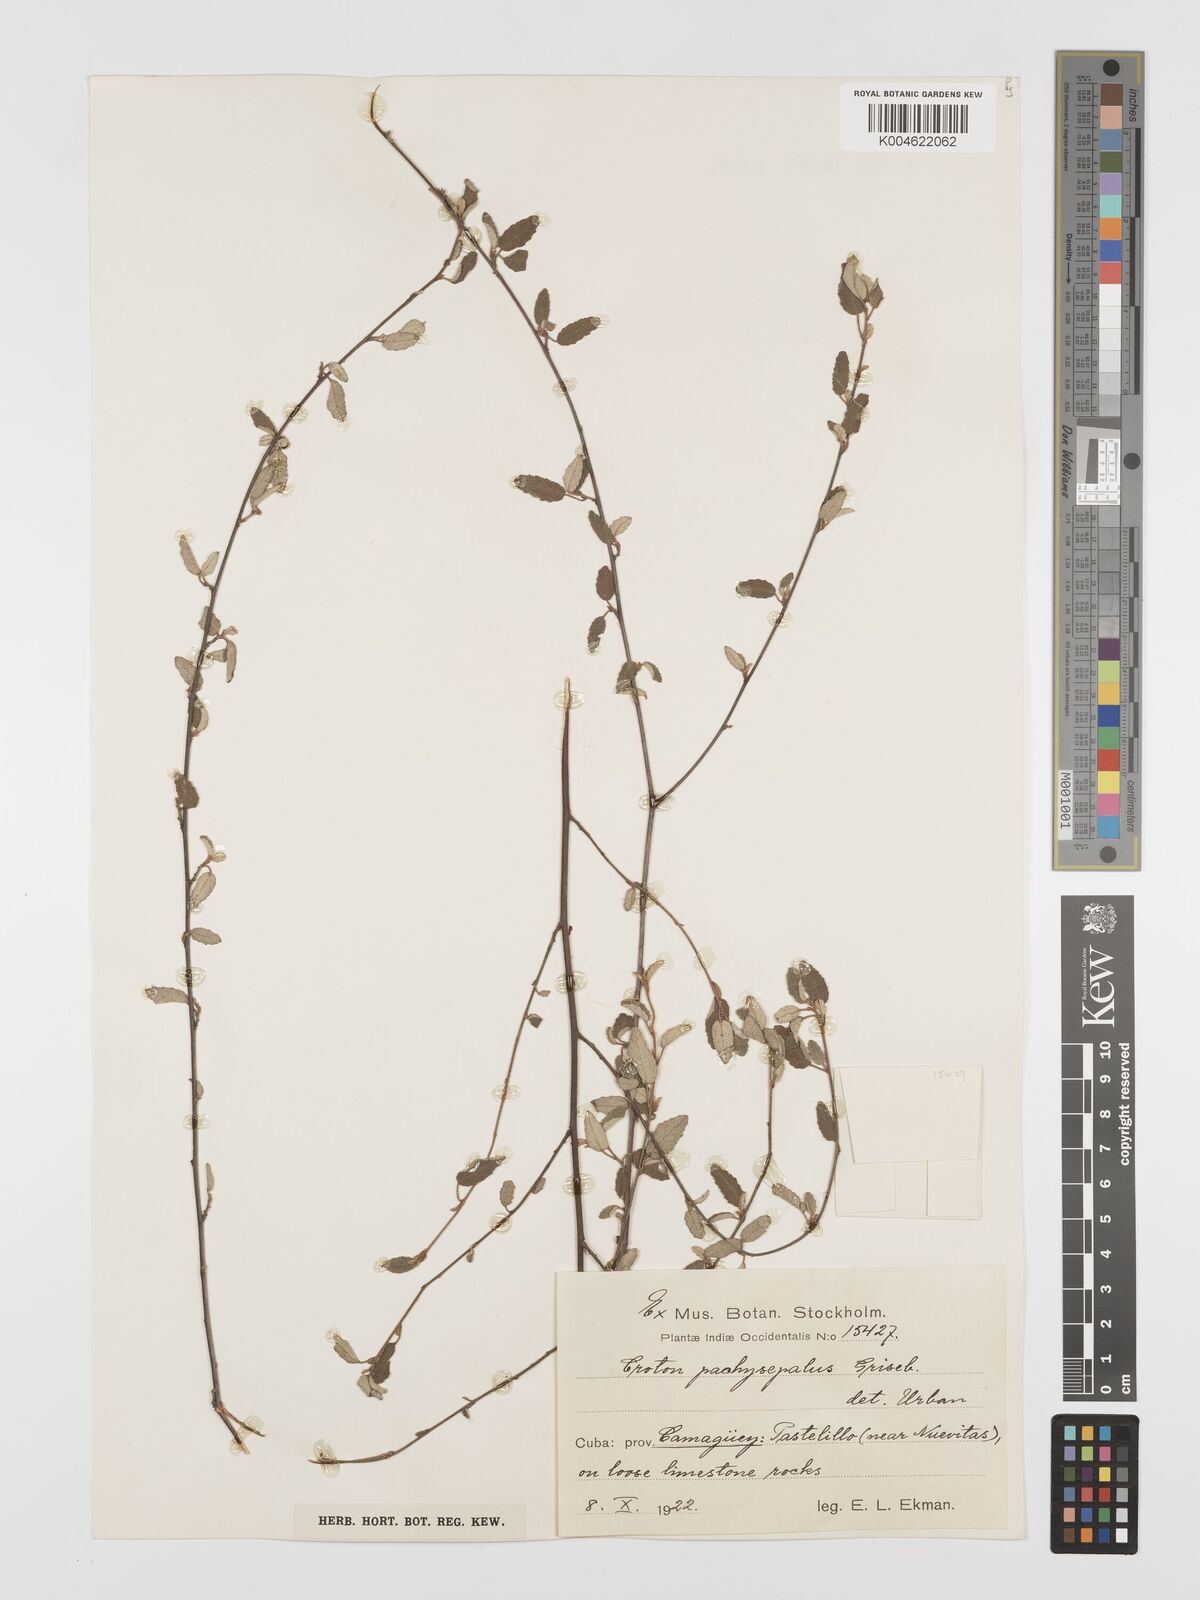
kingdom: Plantae
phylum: Tracheophyta
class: Magnoliopsida
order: Malpighiales
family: Euphorbiaceae
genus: Croton
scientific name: Croton pachysepalus
